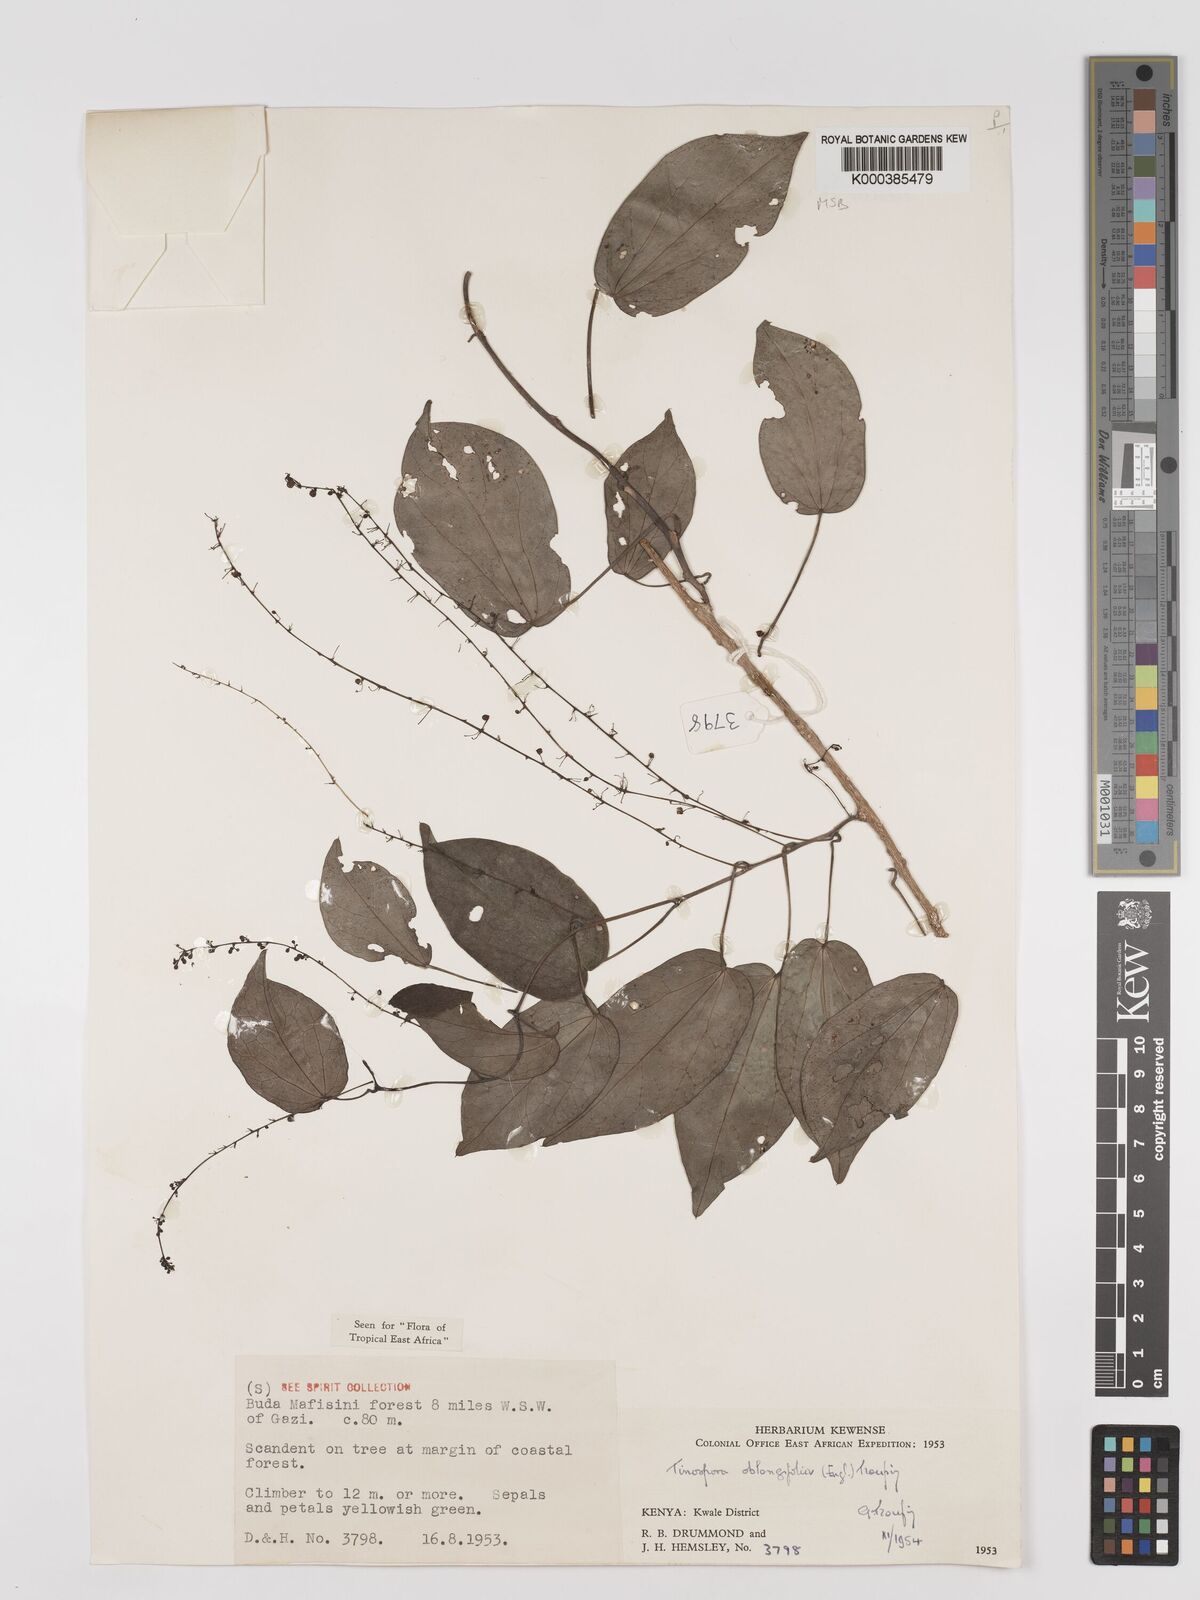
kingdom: Plantae
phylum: Tracheophyta
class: Magnoliopsida
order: Ranunculales
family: Menispermaceae
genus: Tinospora
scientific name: Tinospora oblongifolia
